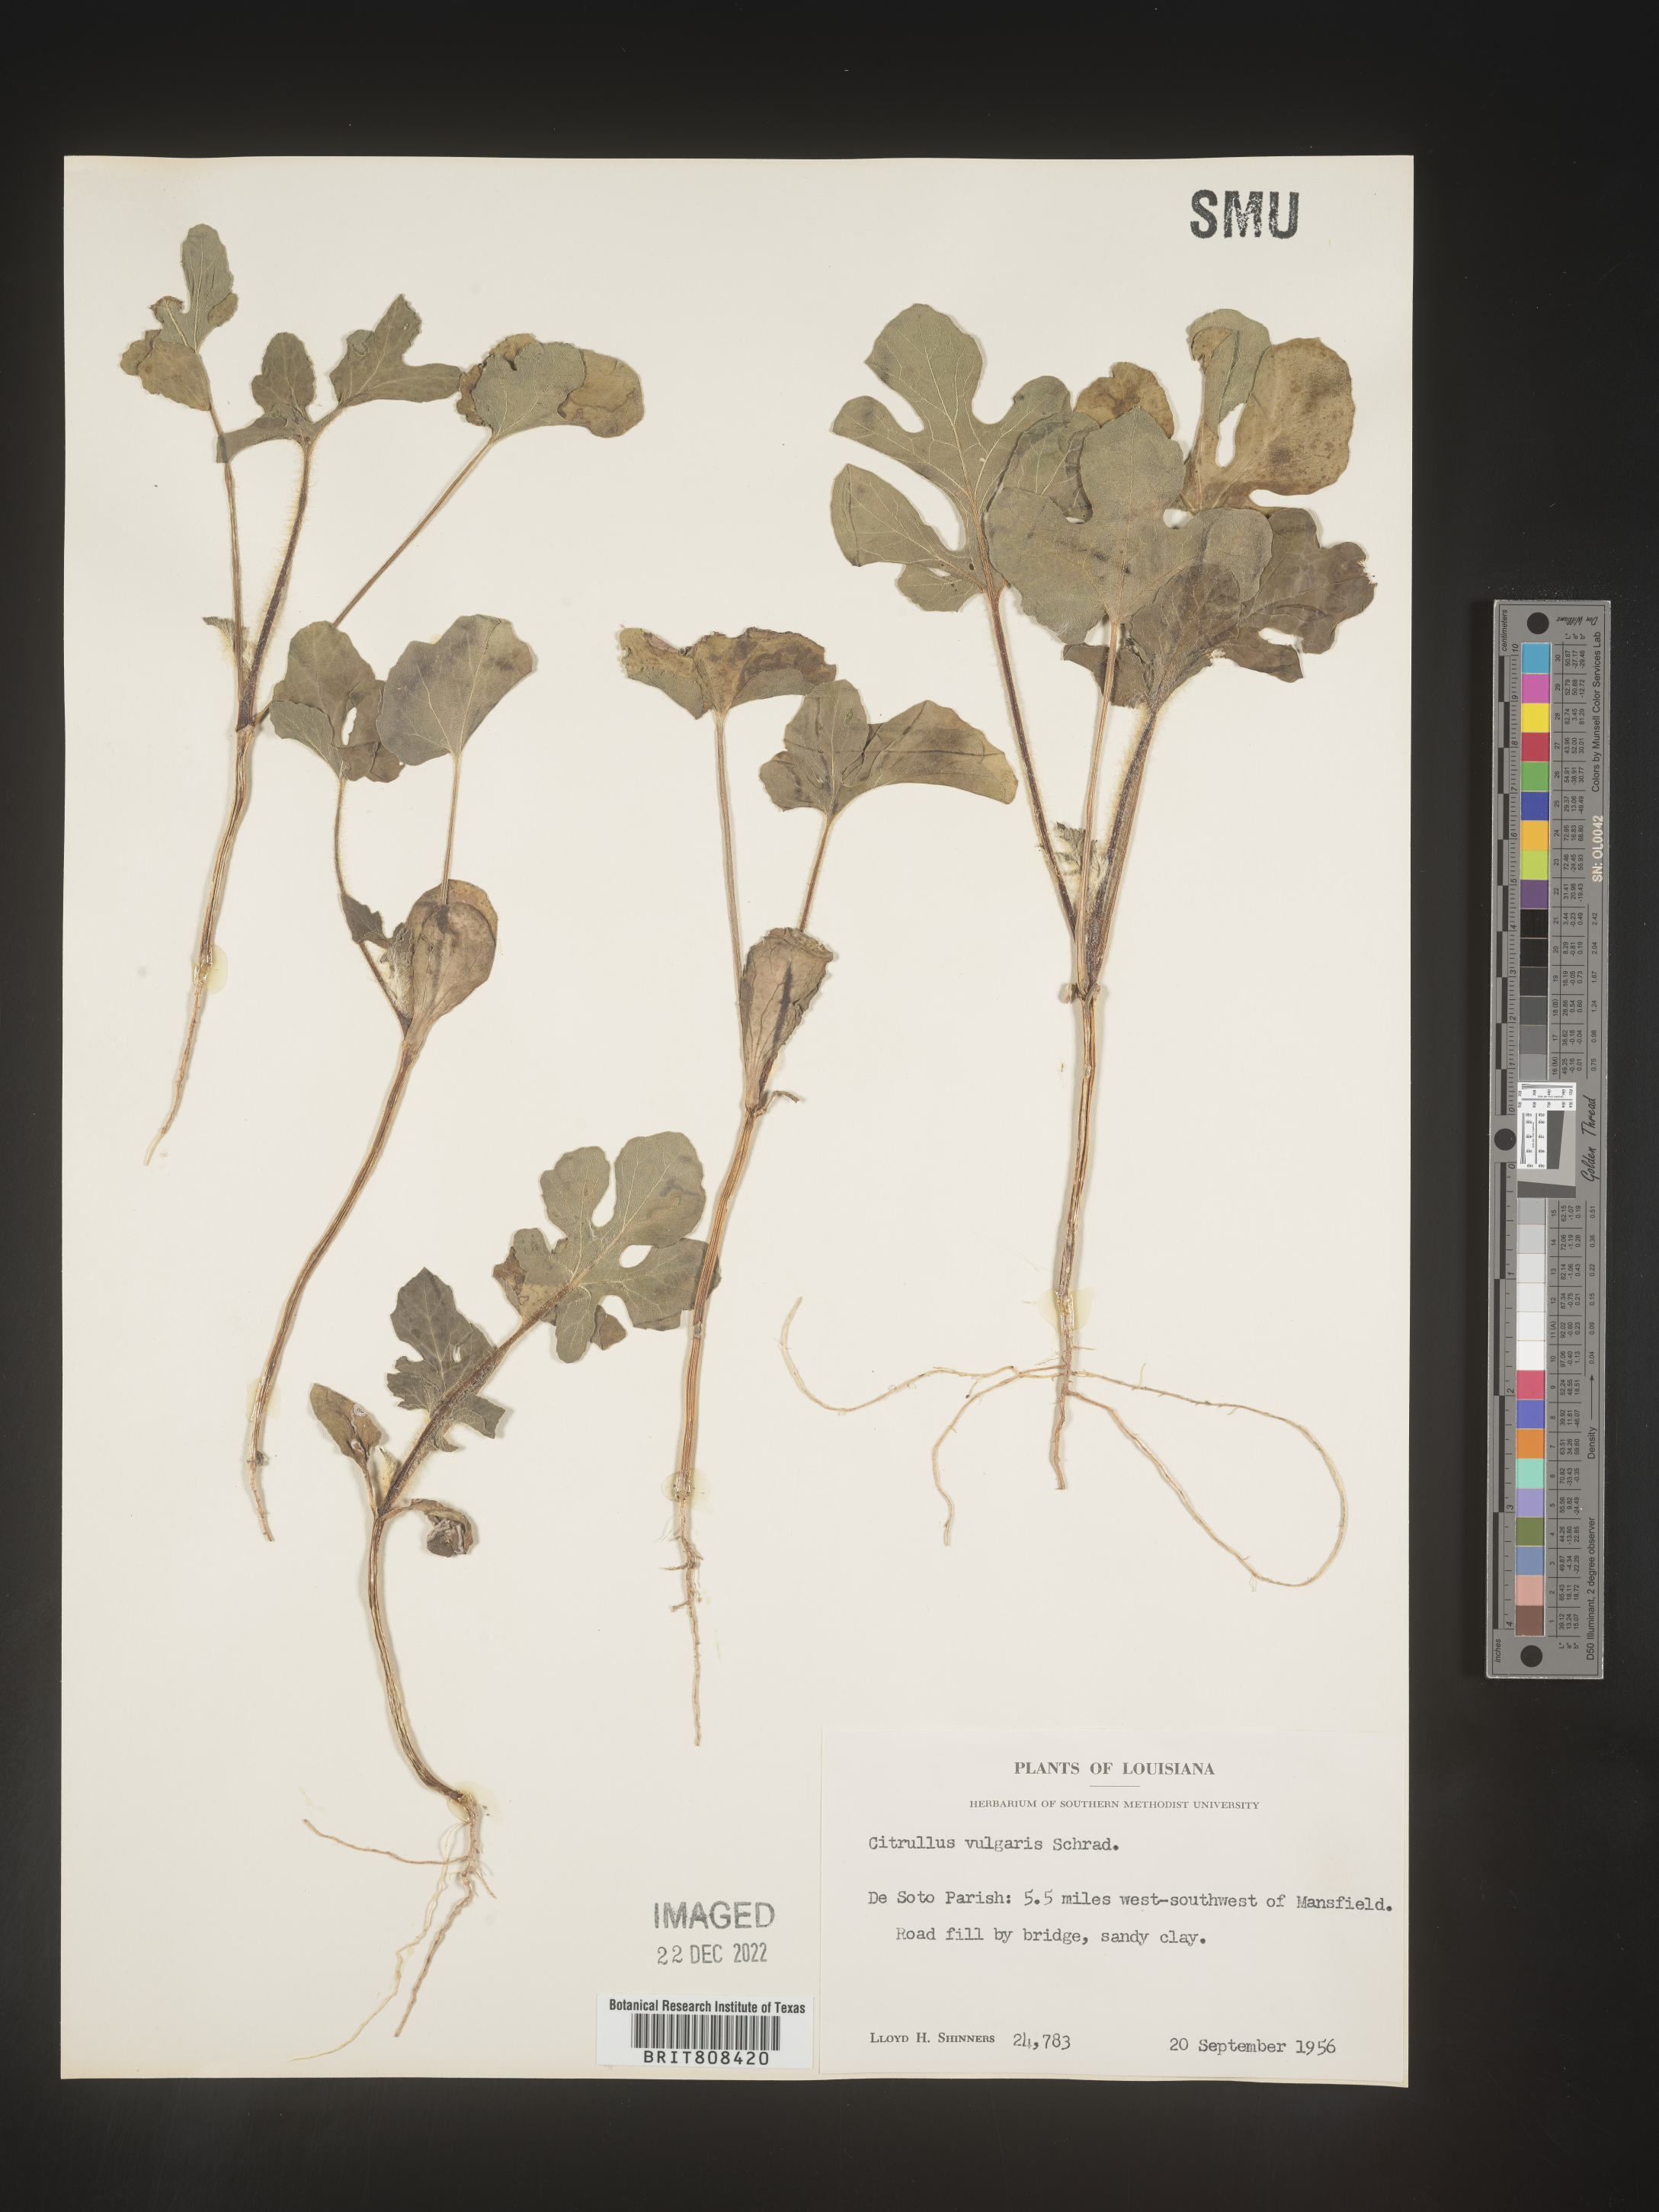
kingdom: Plantae
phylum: Tracheophyta
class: Magnoliopsida
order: Cucurbitales
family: Cucurbitaceae
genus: Citrullus
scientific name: Citrullus
